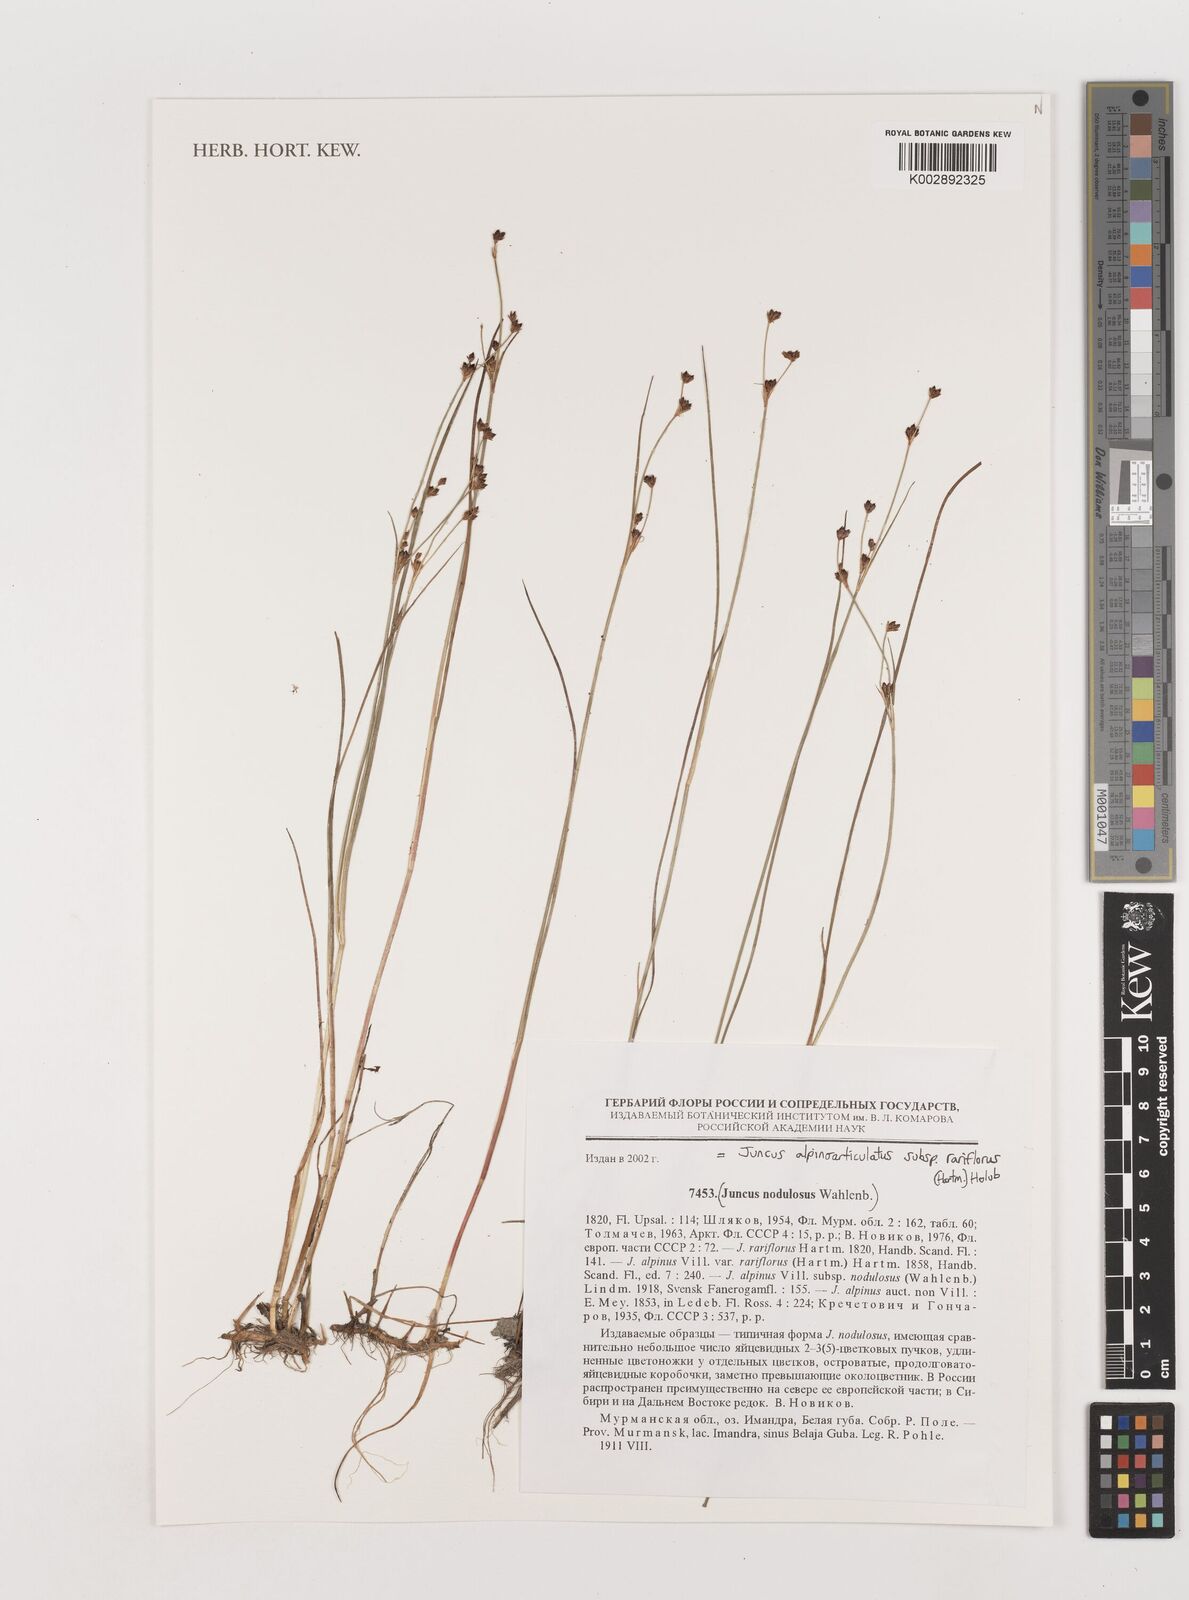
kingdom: Plantae
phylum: Tracheophyta
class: Liliopsida
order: Poales
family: Juncaceae
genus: Juncus
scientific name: Juncus alpinoarticulatus
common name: Alpine rush
